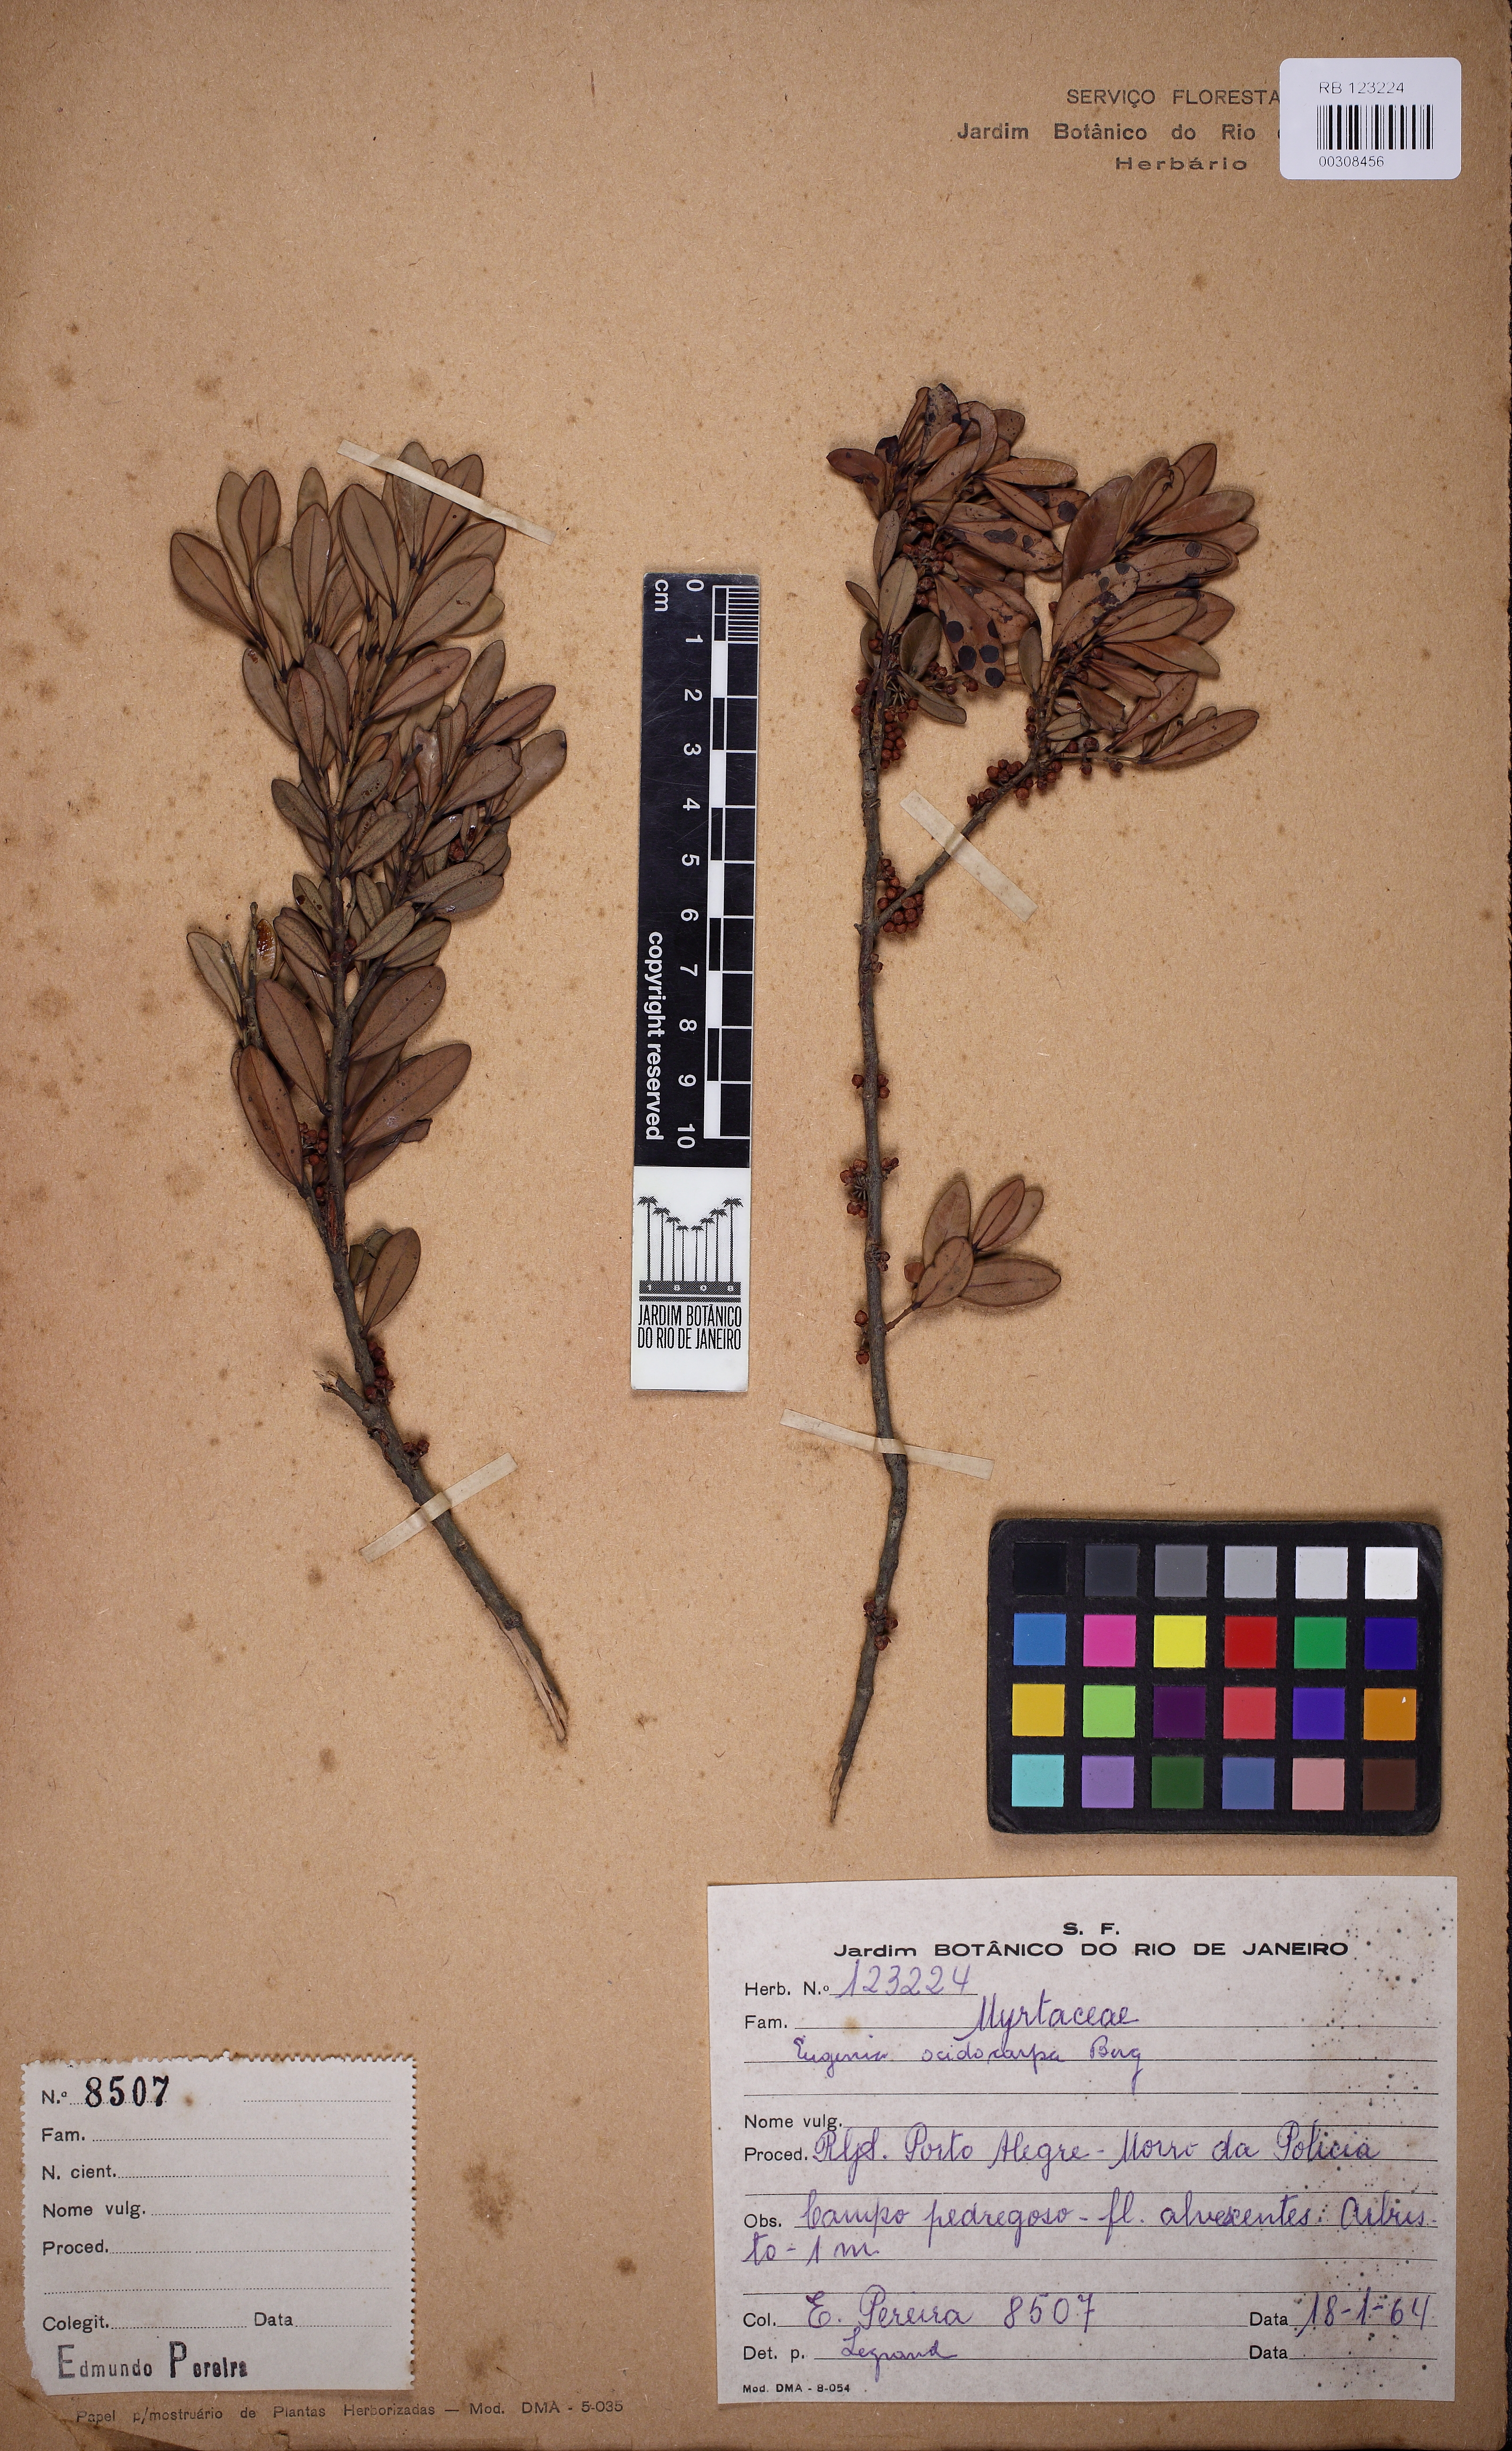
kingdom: Plantae
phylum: Tracheophyta
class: Magnoliopsida
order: Myrtales
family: Myrtaceae
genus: Eugenia
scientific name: Eugenia oeidocarpa
